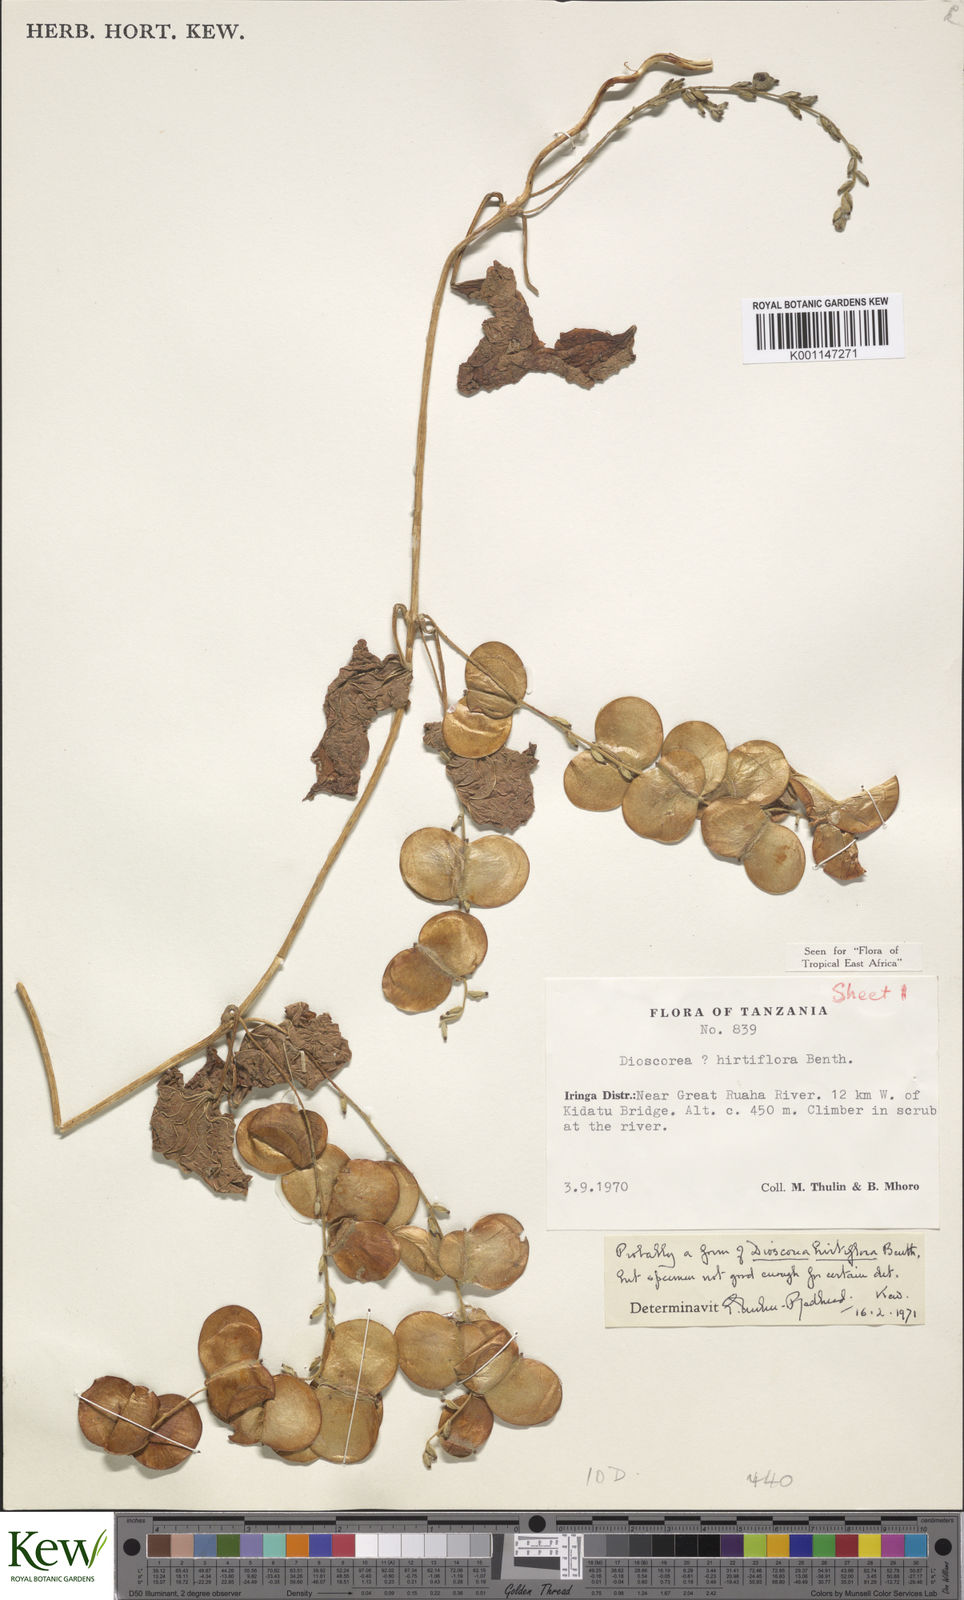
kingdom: Plantae
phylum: Tracheophyta
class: Liliopsida
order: Dioscoreales
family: Dioscoreaceae
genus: Dioscorea
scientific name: Dioscorea hirtiflora
